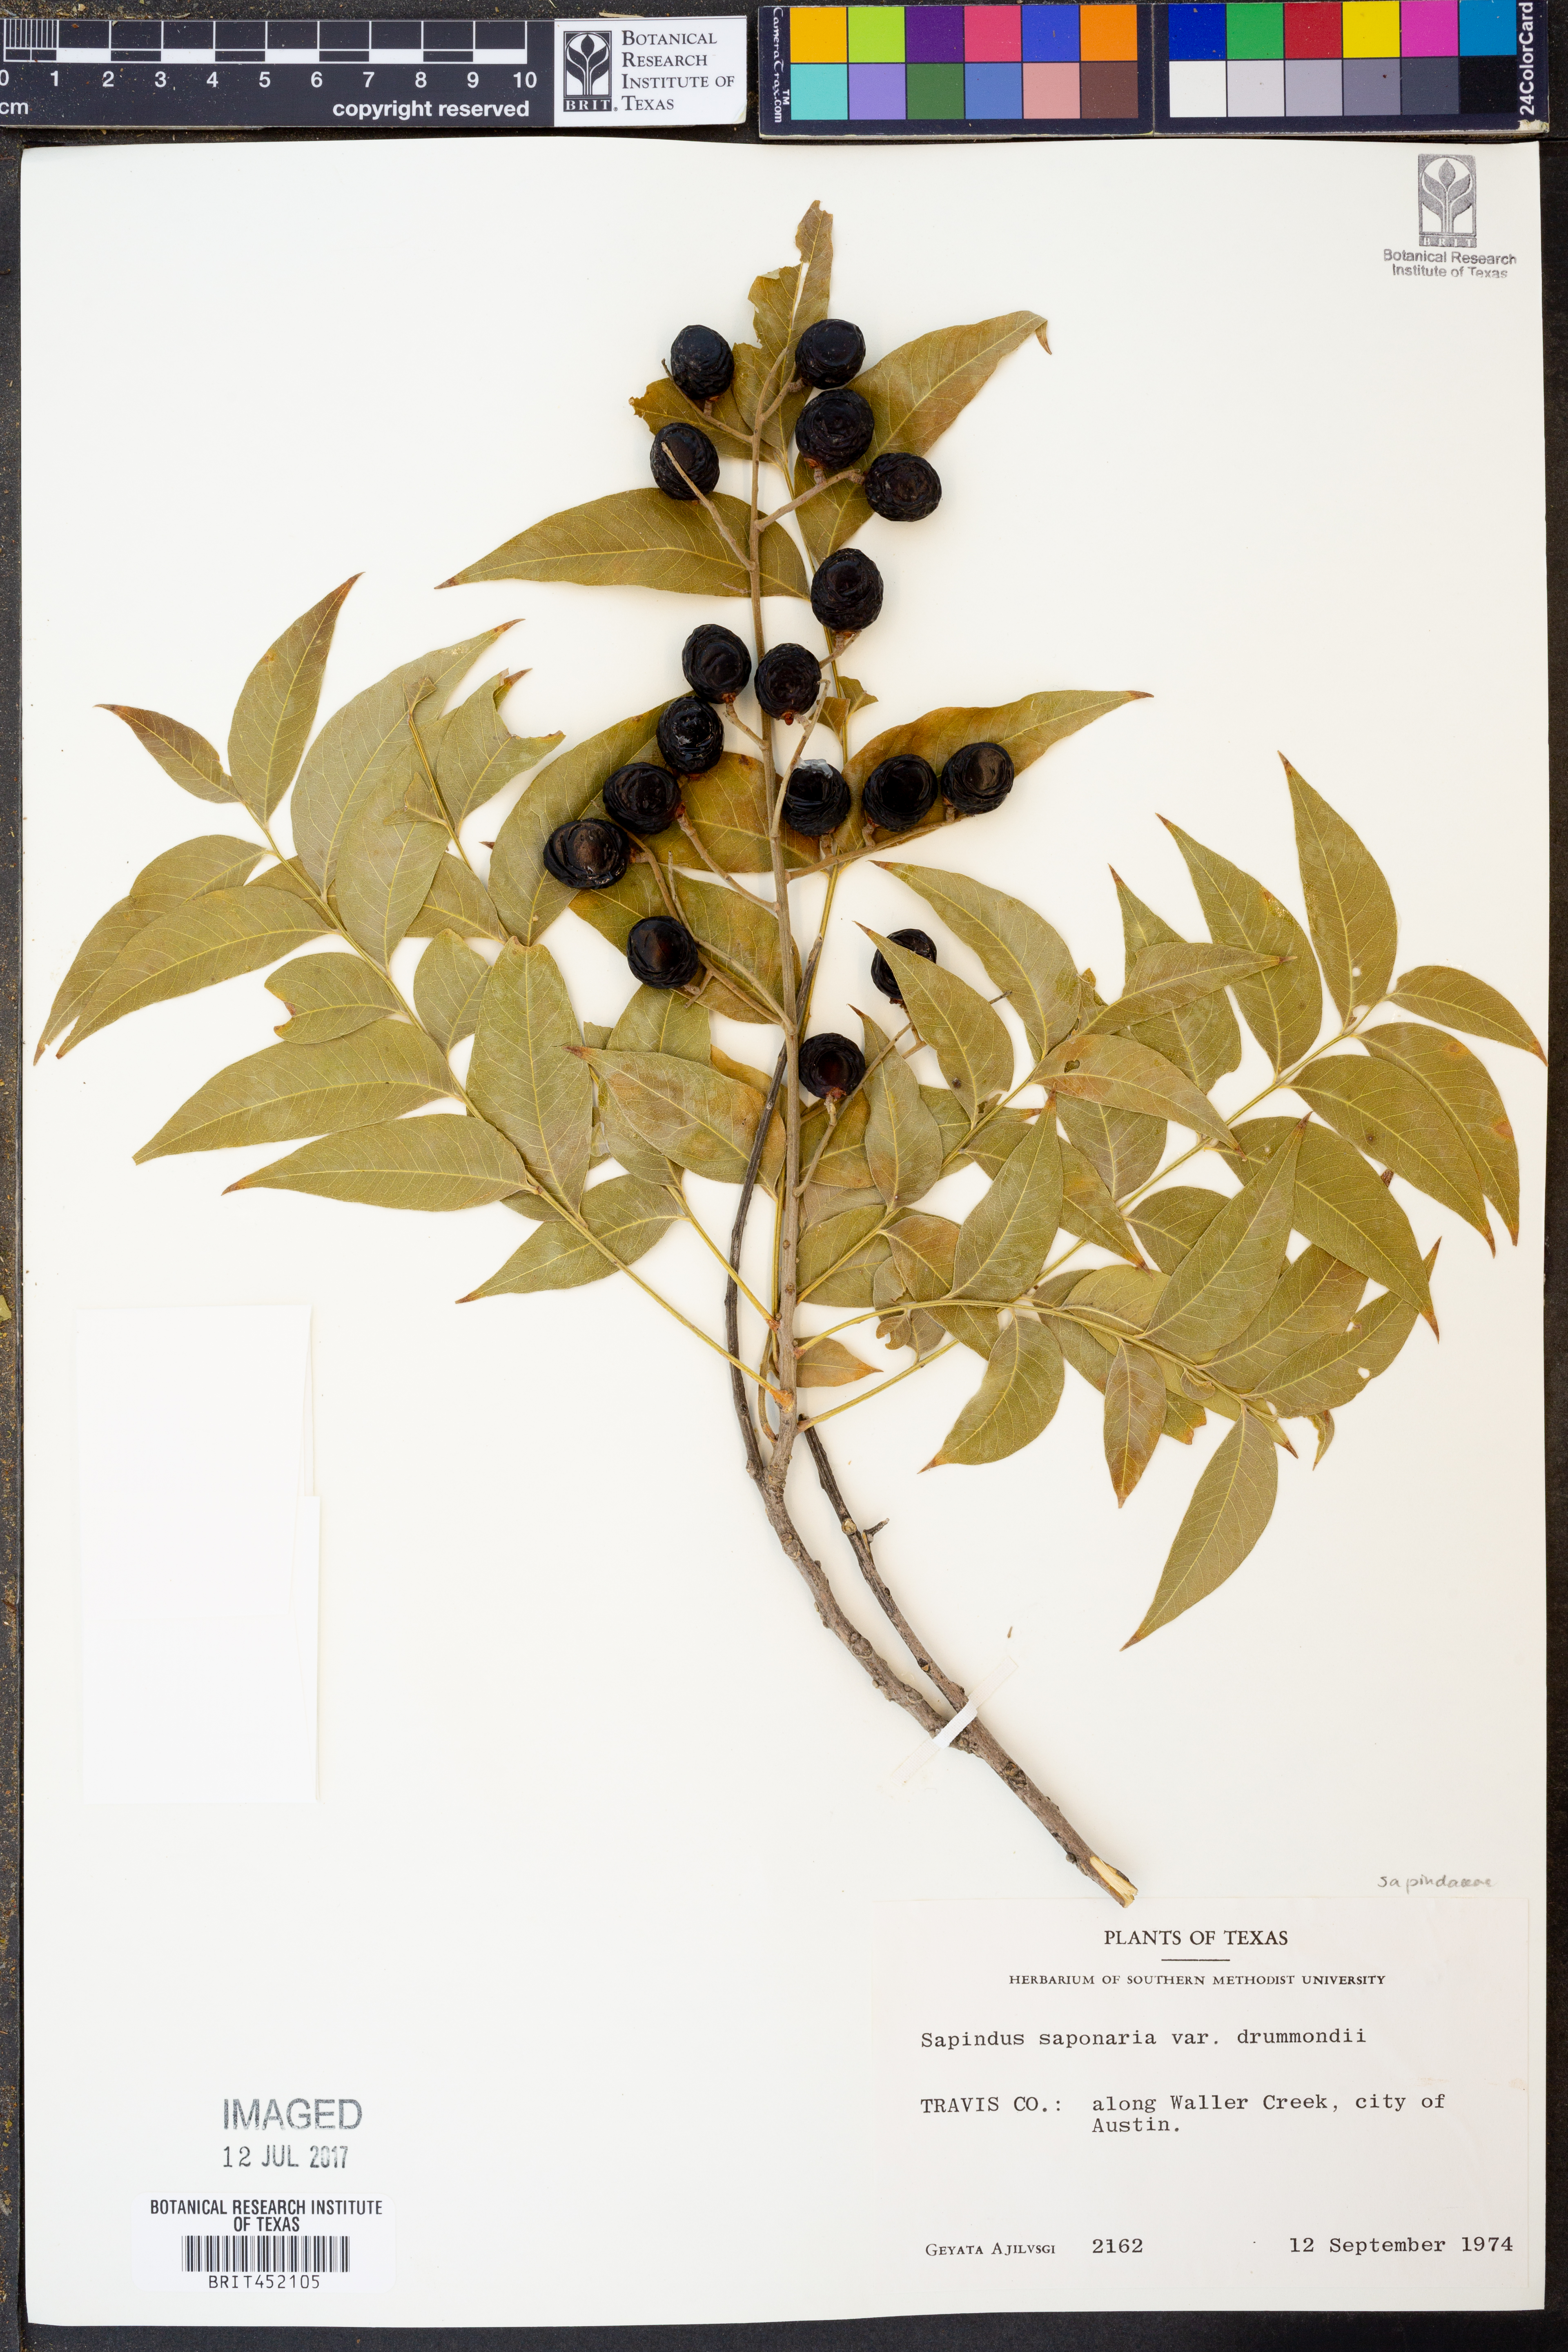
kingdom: Plantae
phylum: Tracheophyta
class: Magnoliopsida
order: Sapindales
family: Sapindaceae
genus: Sapindus
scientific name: Sapindus drummondii
